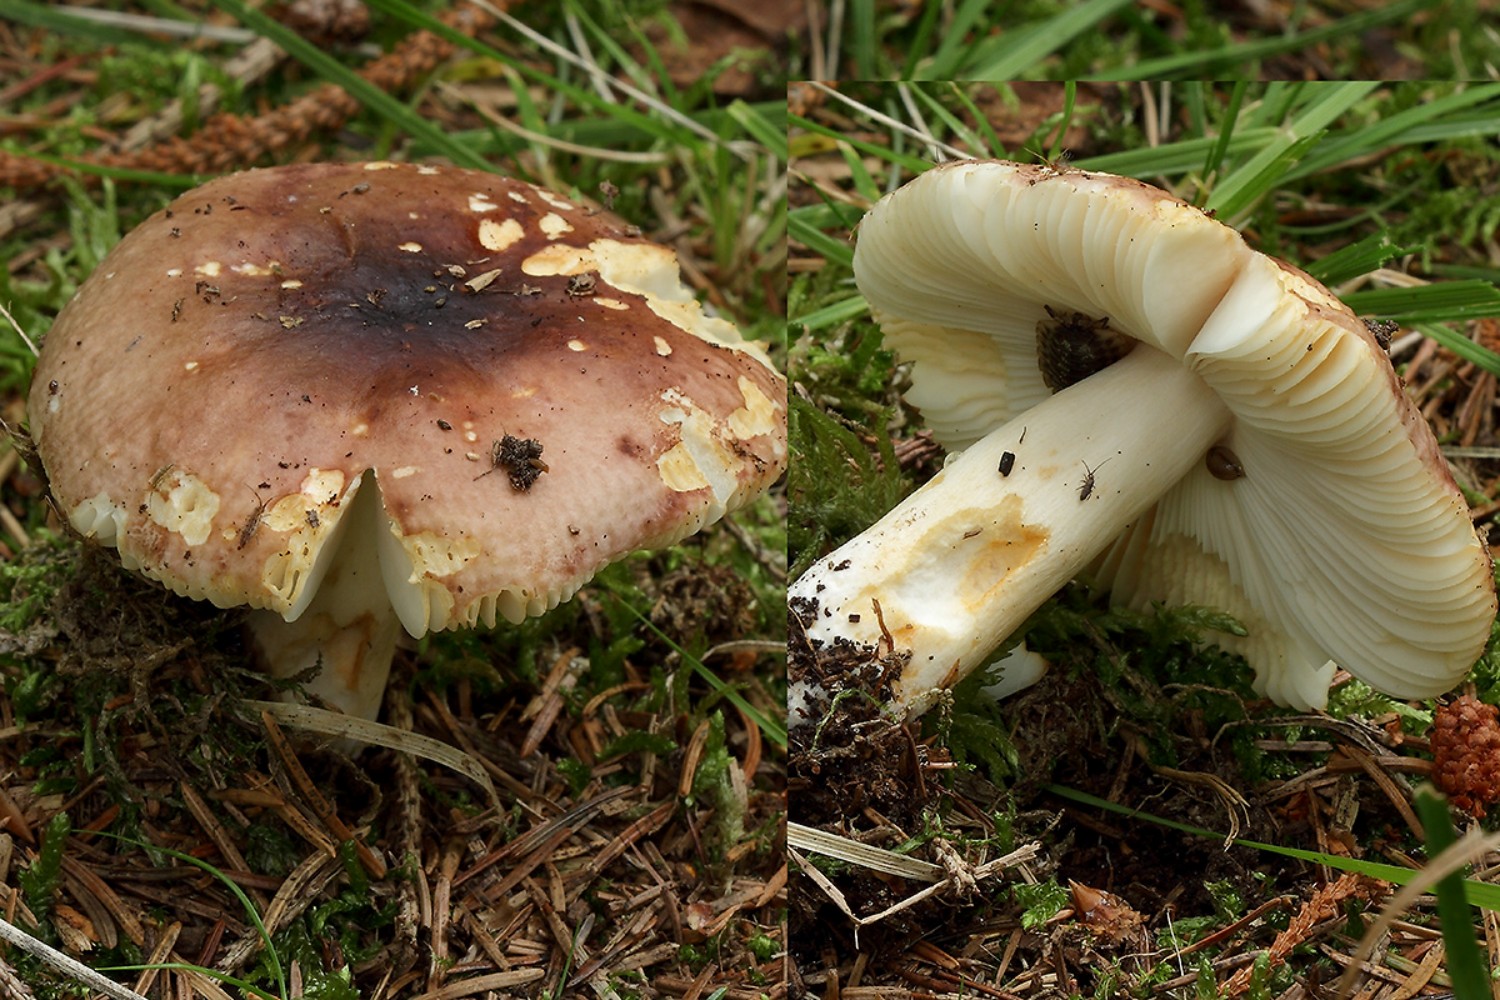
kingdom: Fungi
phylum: Basidiomycota
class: Agaricomycetes
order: Russulales
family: Russulaceae
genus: Russula
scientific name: Russula puellaris
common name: gulstokket skørhat
